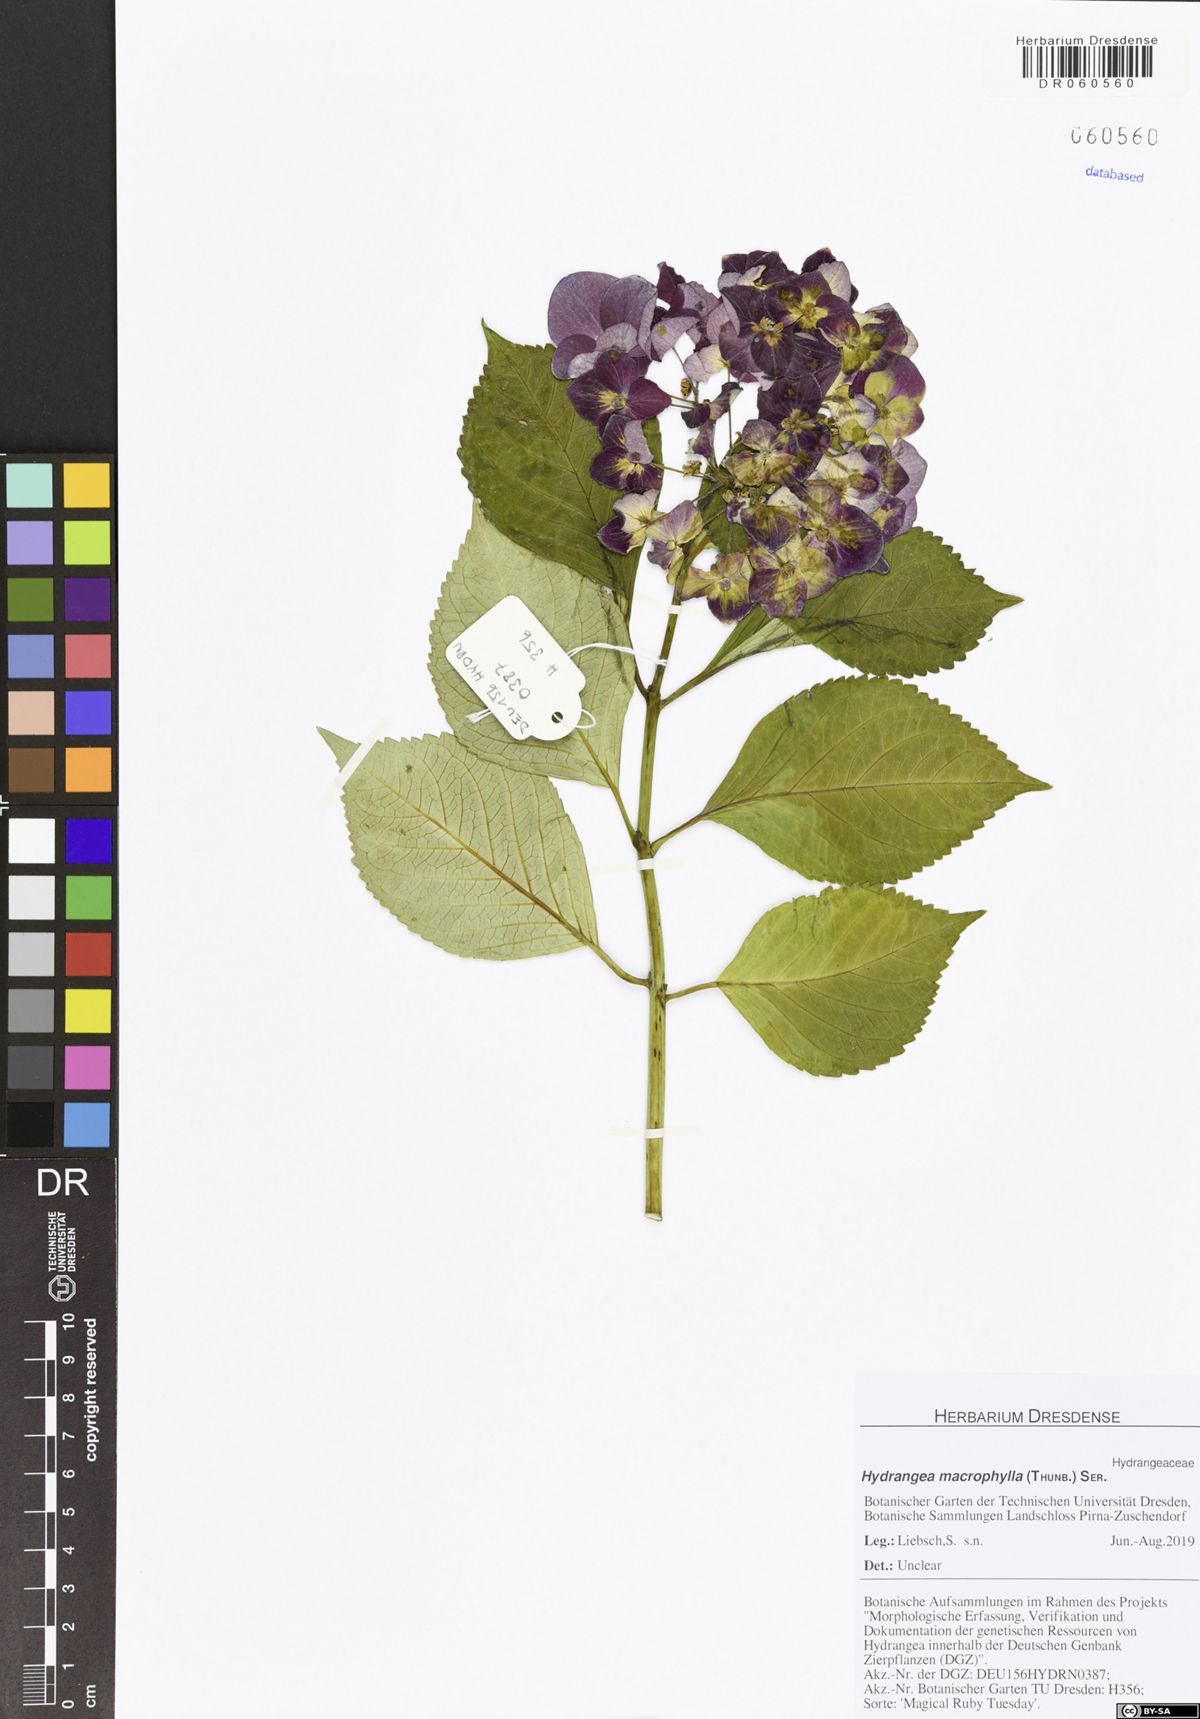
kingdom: Plantae
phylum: Tracheophyta
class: Magnoliopsida
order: Cornales
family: Hydrangeaceae
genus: Hydrangea
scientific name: Hydrangea macrophylla
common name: Hydrangea
